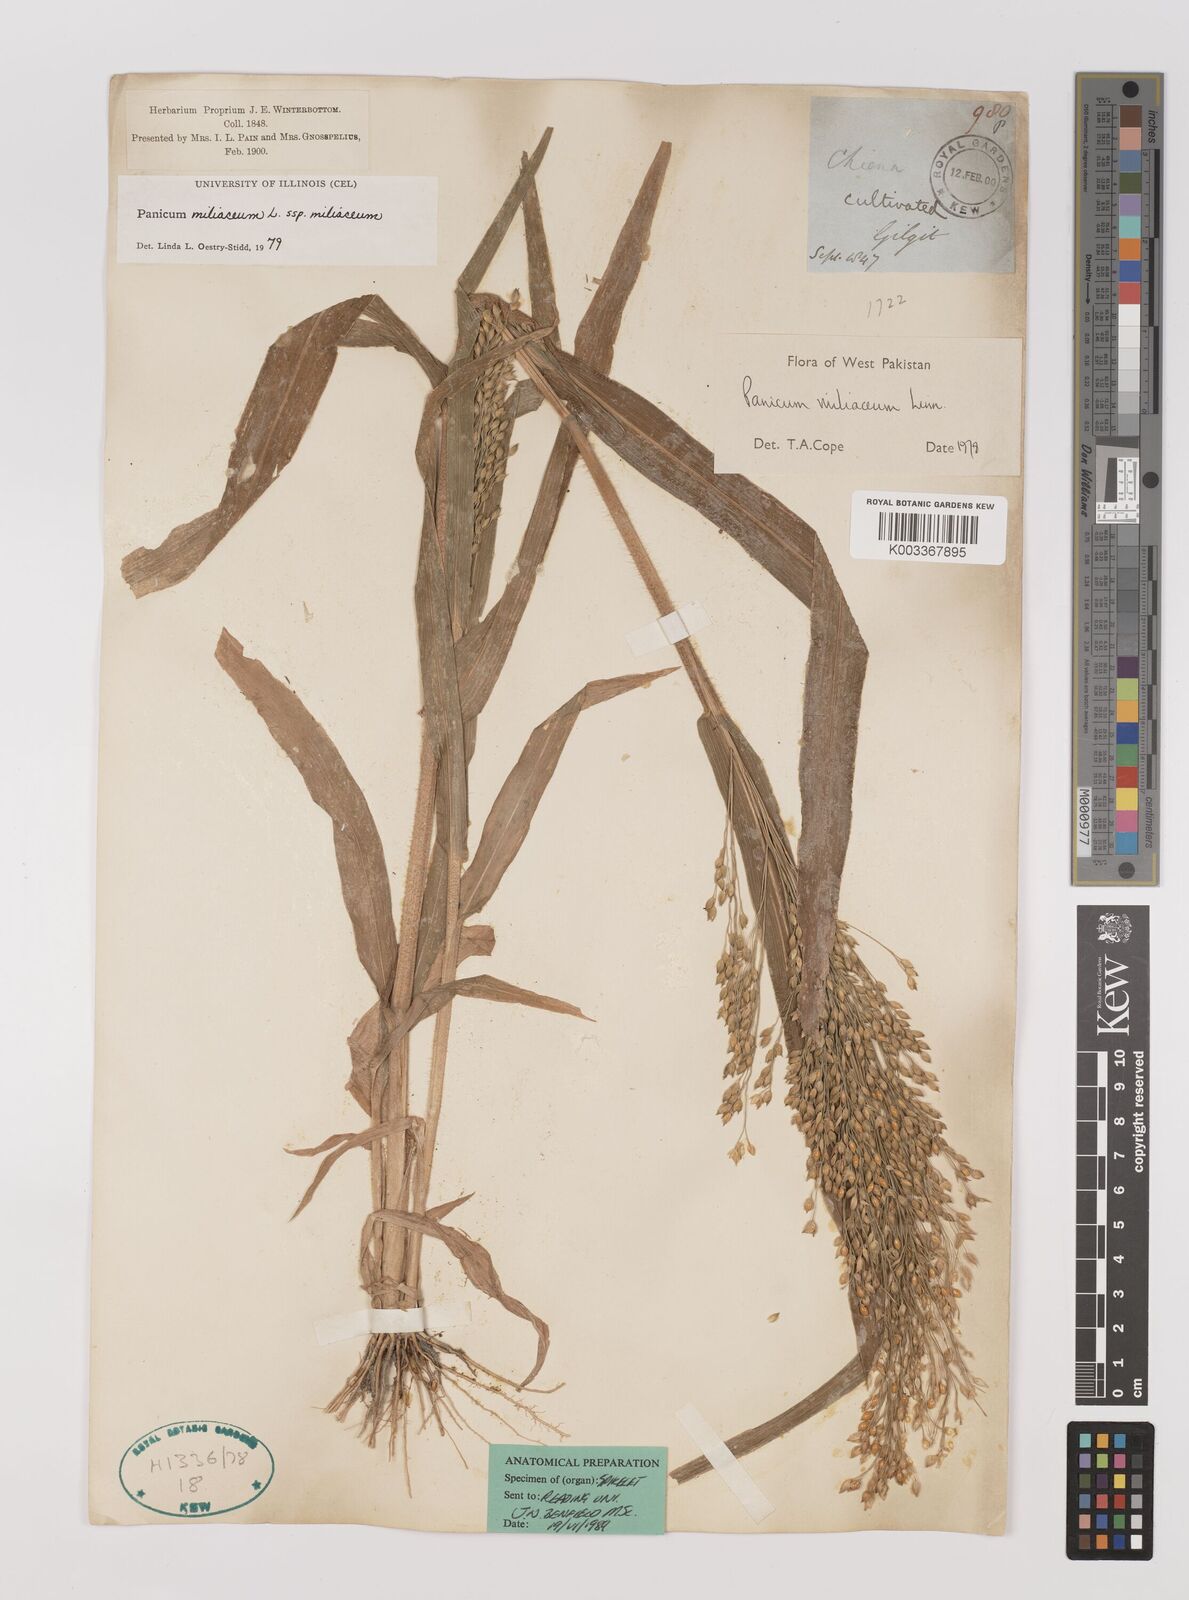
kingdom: Plantae
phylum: Tracheophyta
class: Liliopsida
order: Poales
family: Poaceae
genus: Panicum
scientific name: Panicum miliaceum
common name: Common millet
